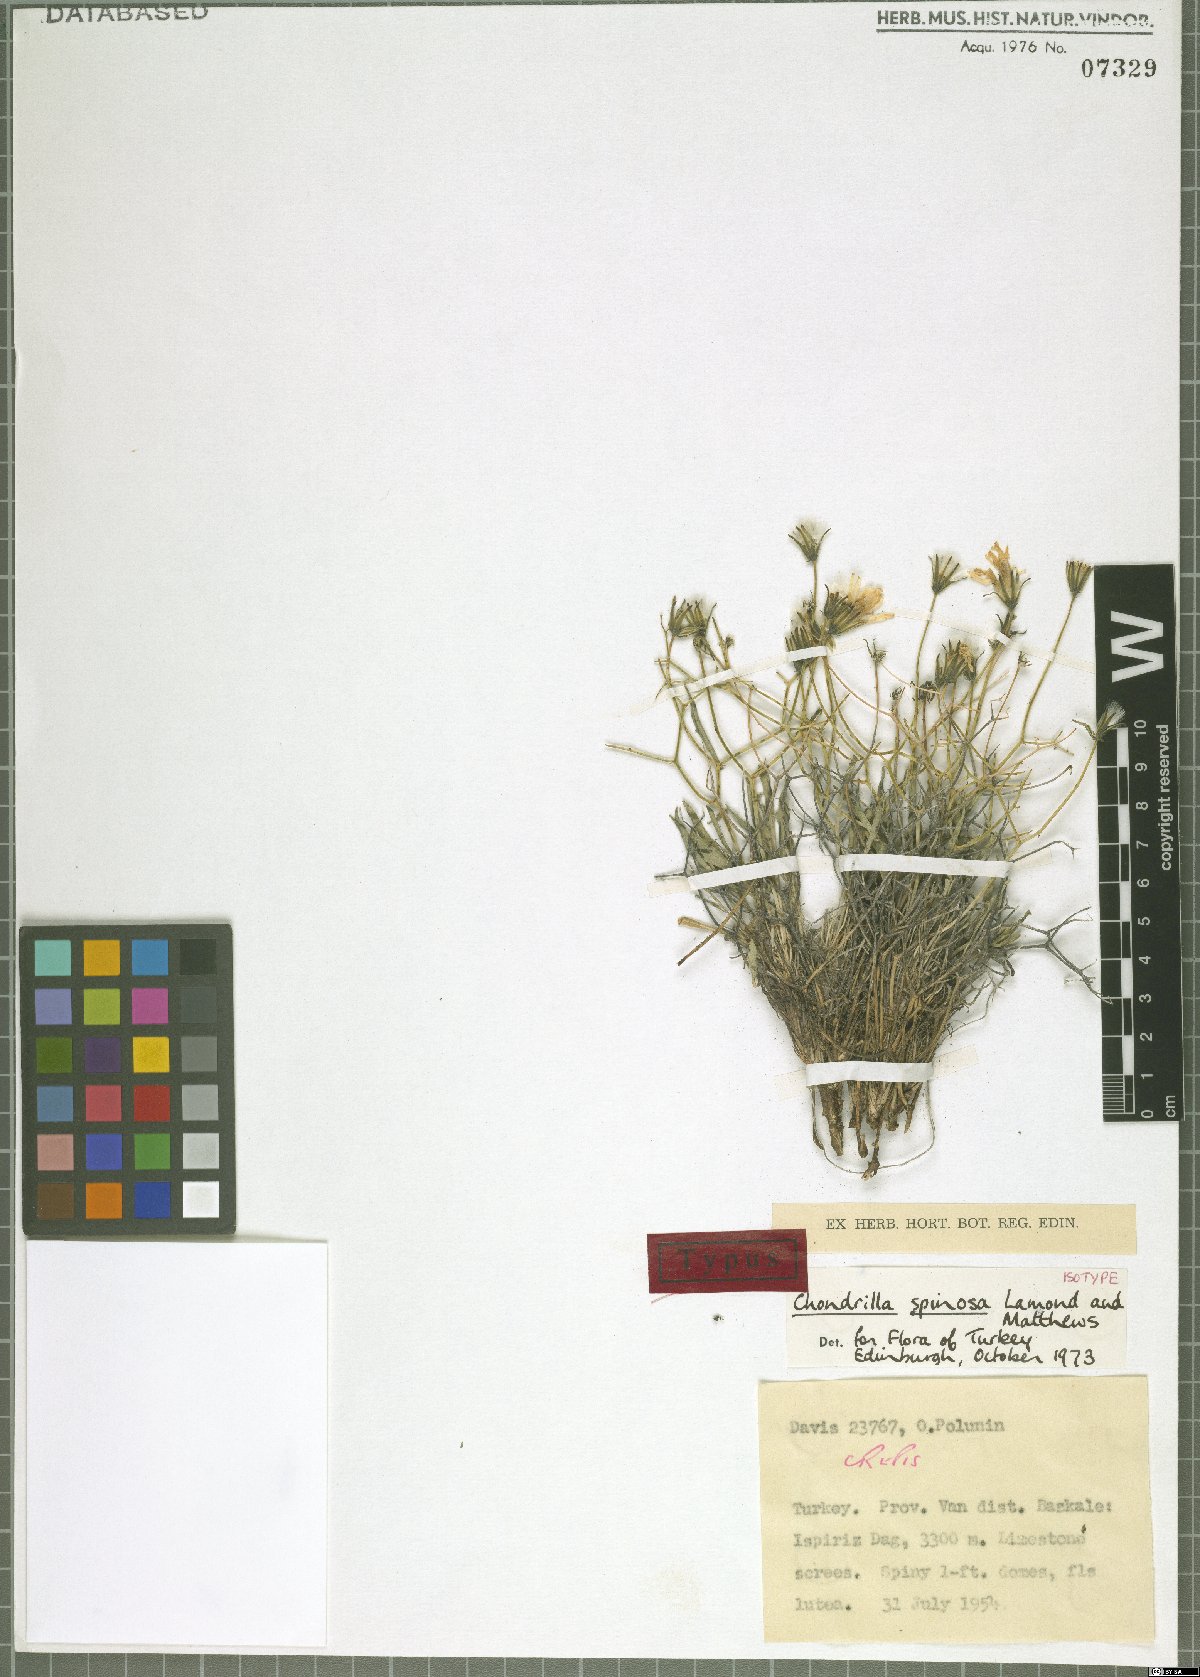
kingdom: Plantae
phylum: Tracheophyta
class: Magnoliopsida
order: Asterales
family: Asteraceae
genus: Chondrilla
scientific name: Chondrilla spinosa
